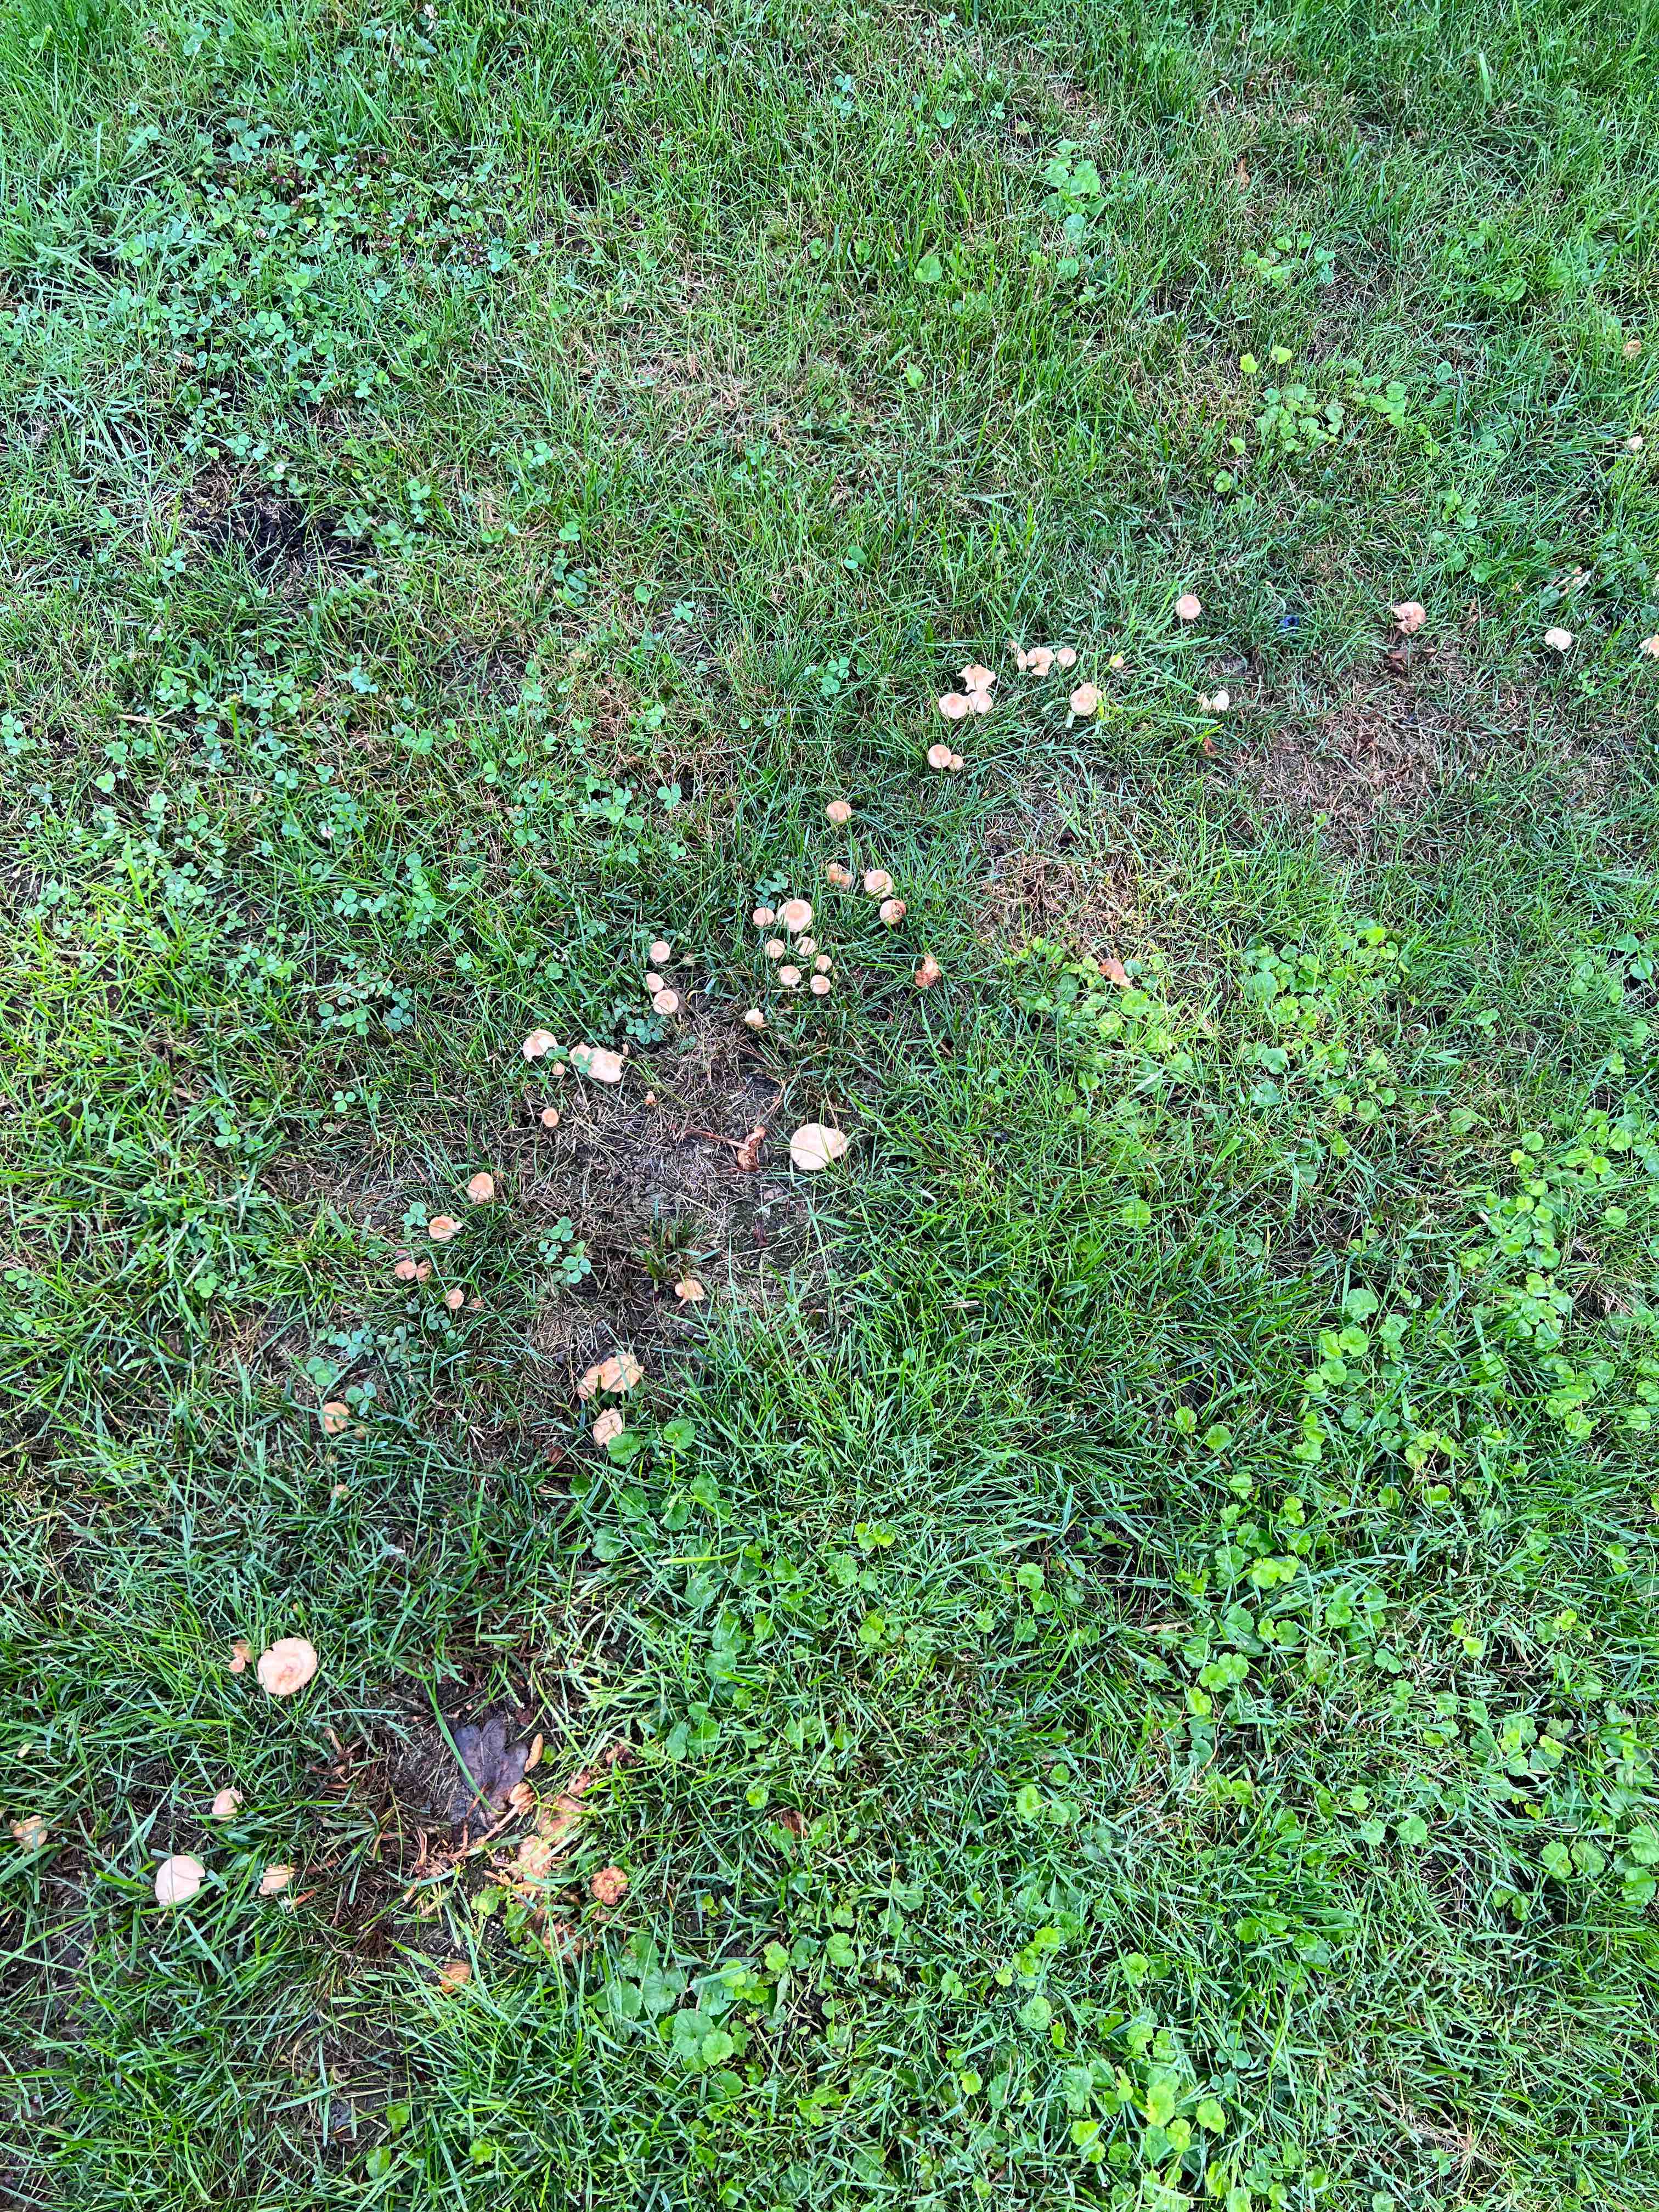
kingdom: Fungi
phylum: Basidiomycota
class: Agaricomycetes
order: Agaricales
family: Marasmiaceae
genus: Marasmius
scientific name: Marasmius oreades
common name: elledans-bruskhat
